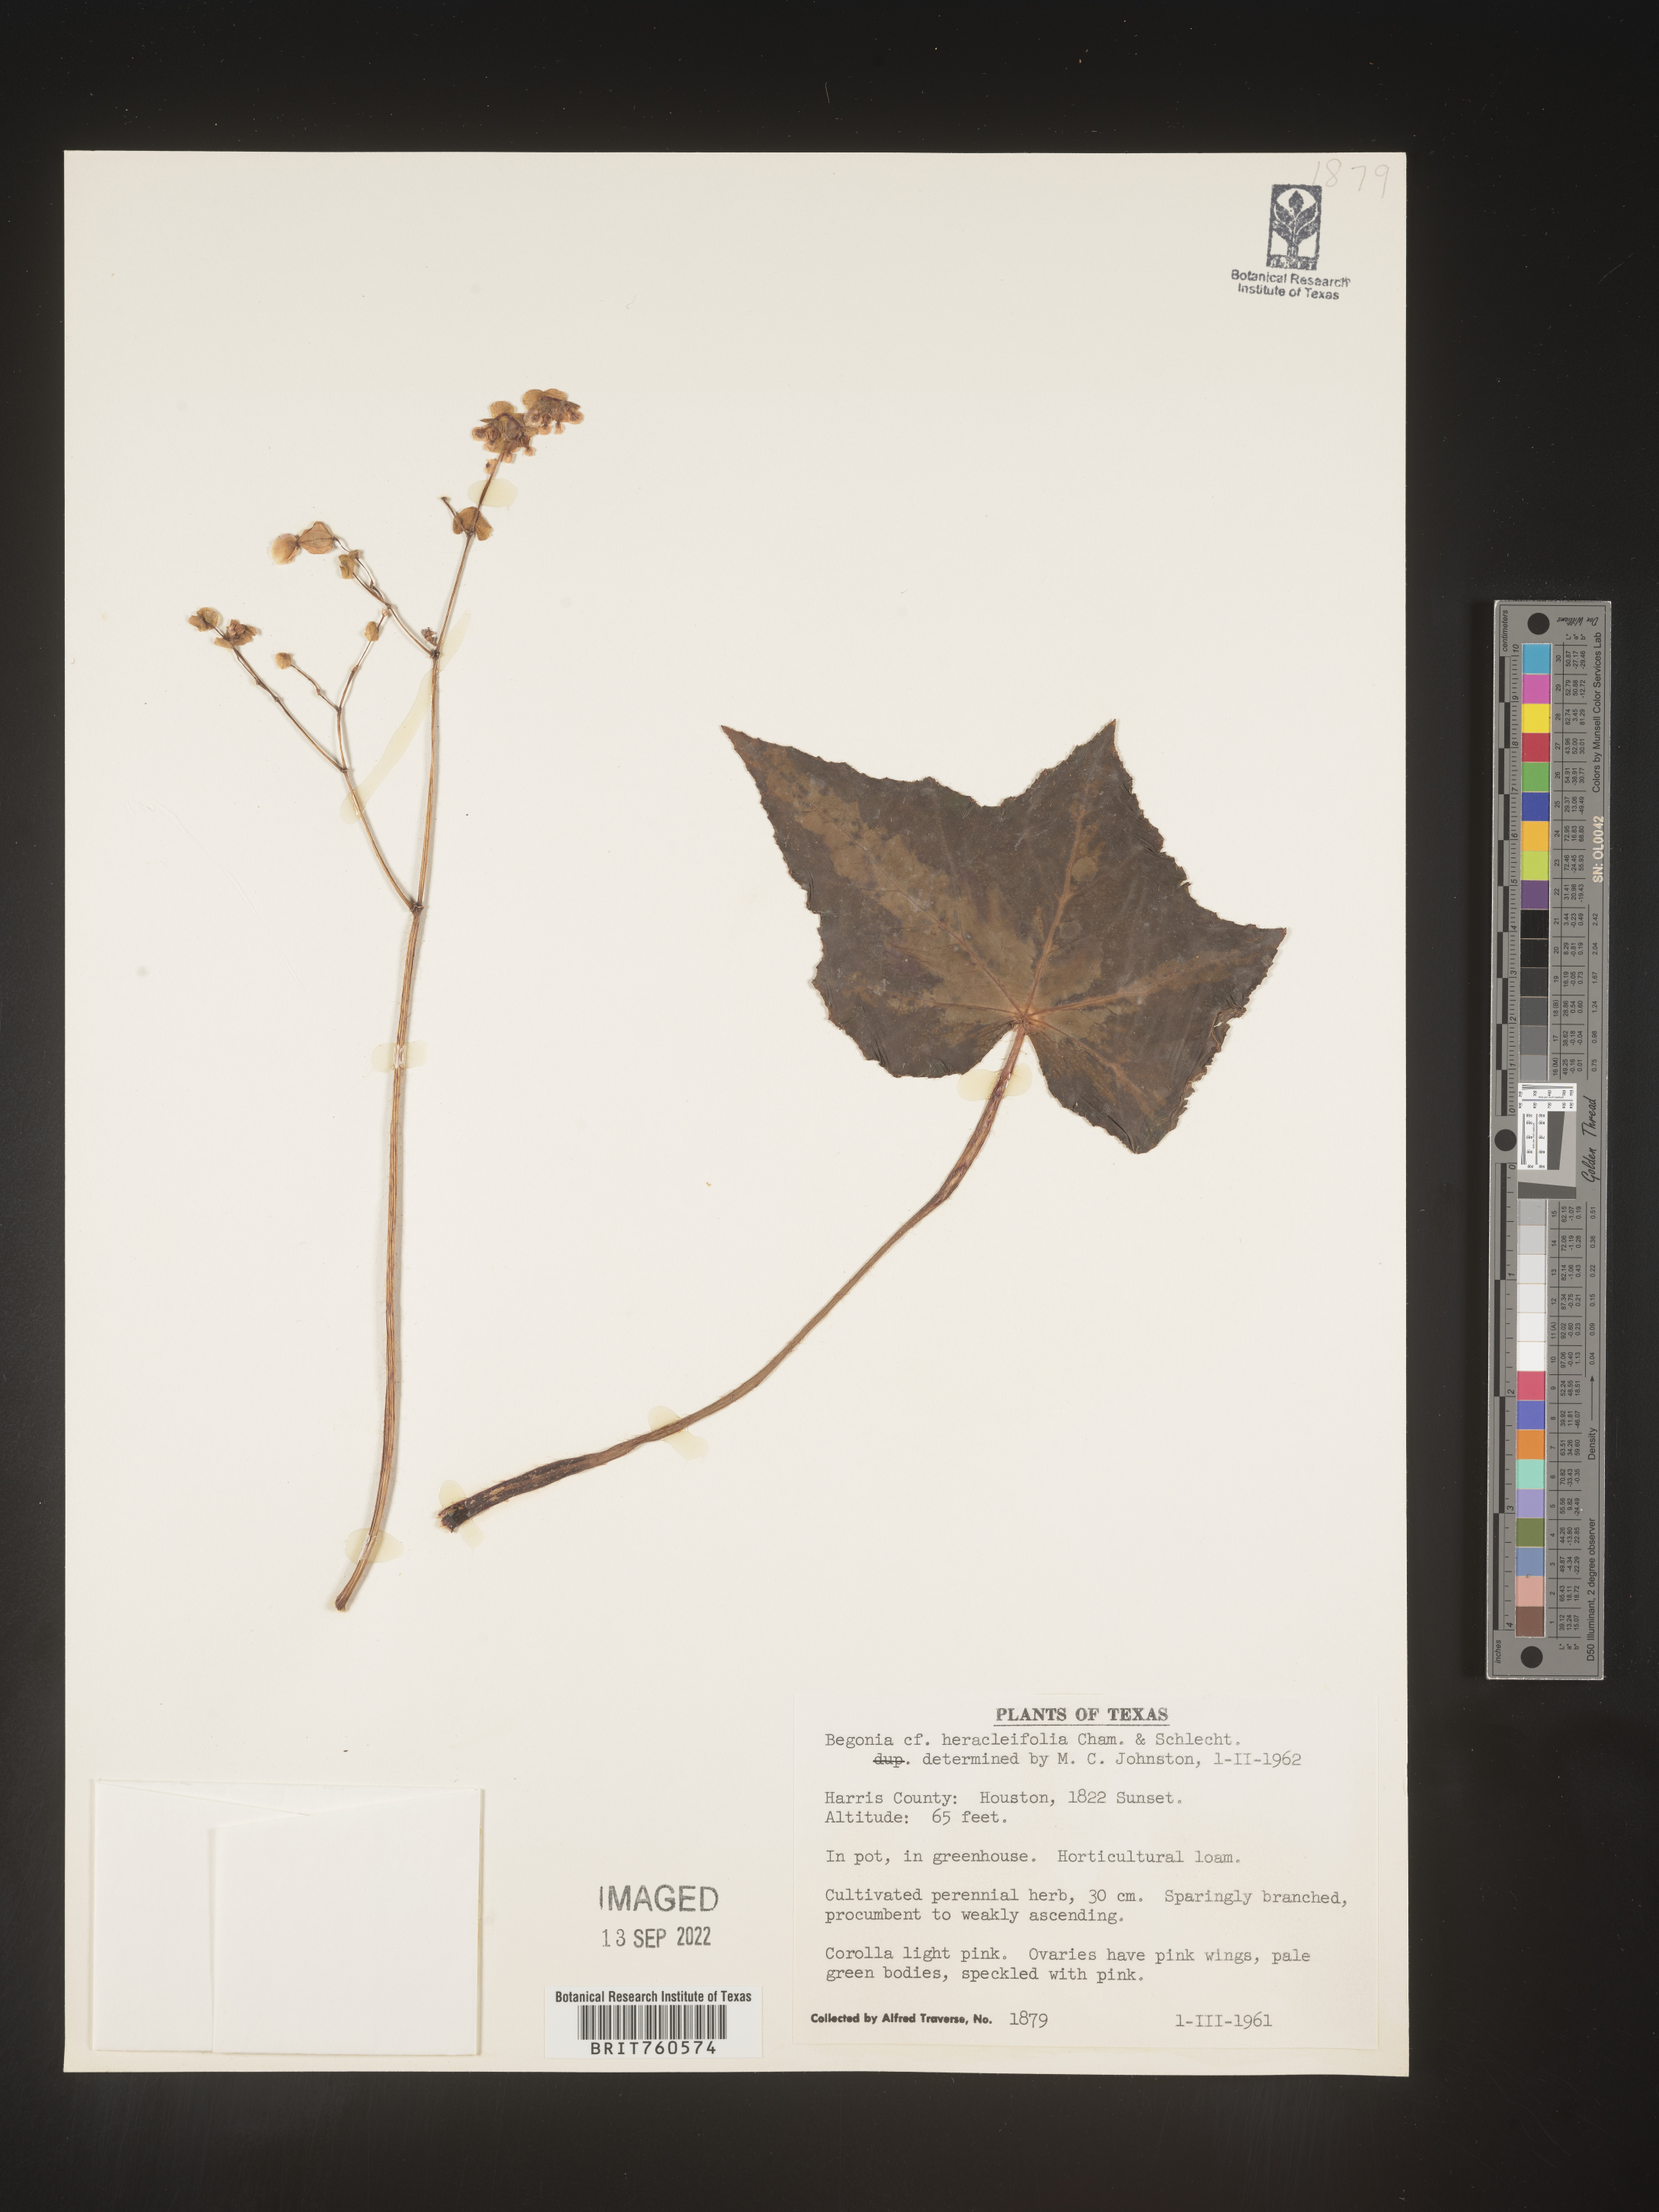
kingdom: Plantae
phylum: Tracheophyta
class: Magnoliopsida
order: Cucurbitales
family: Begoniaceae
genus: Begonia
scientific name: Begonia
